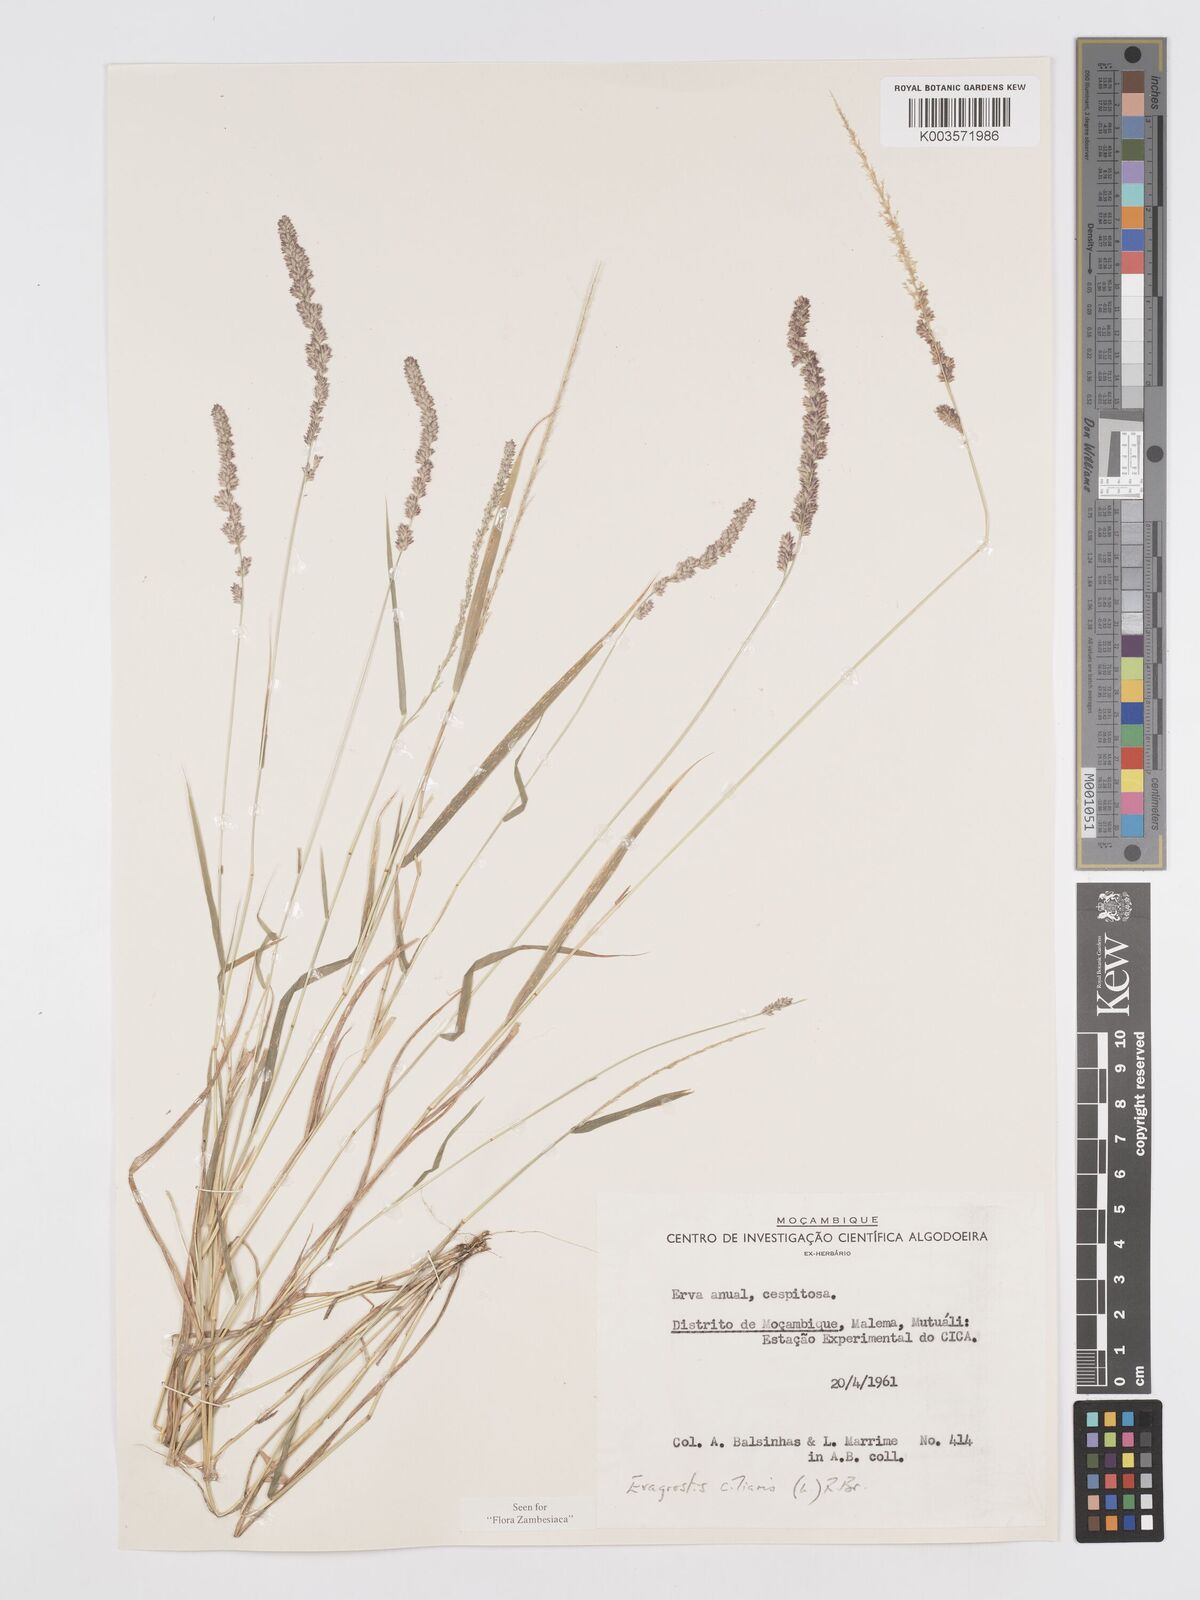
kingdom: Plantae
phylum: Tracheophyta
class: Liliopsida
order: Poales
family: Poaceae
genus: Eragrostis
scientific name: Eragrostis ciliaris
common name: Gophertail lovegrass
